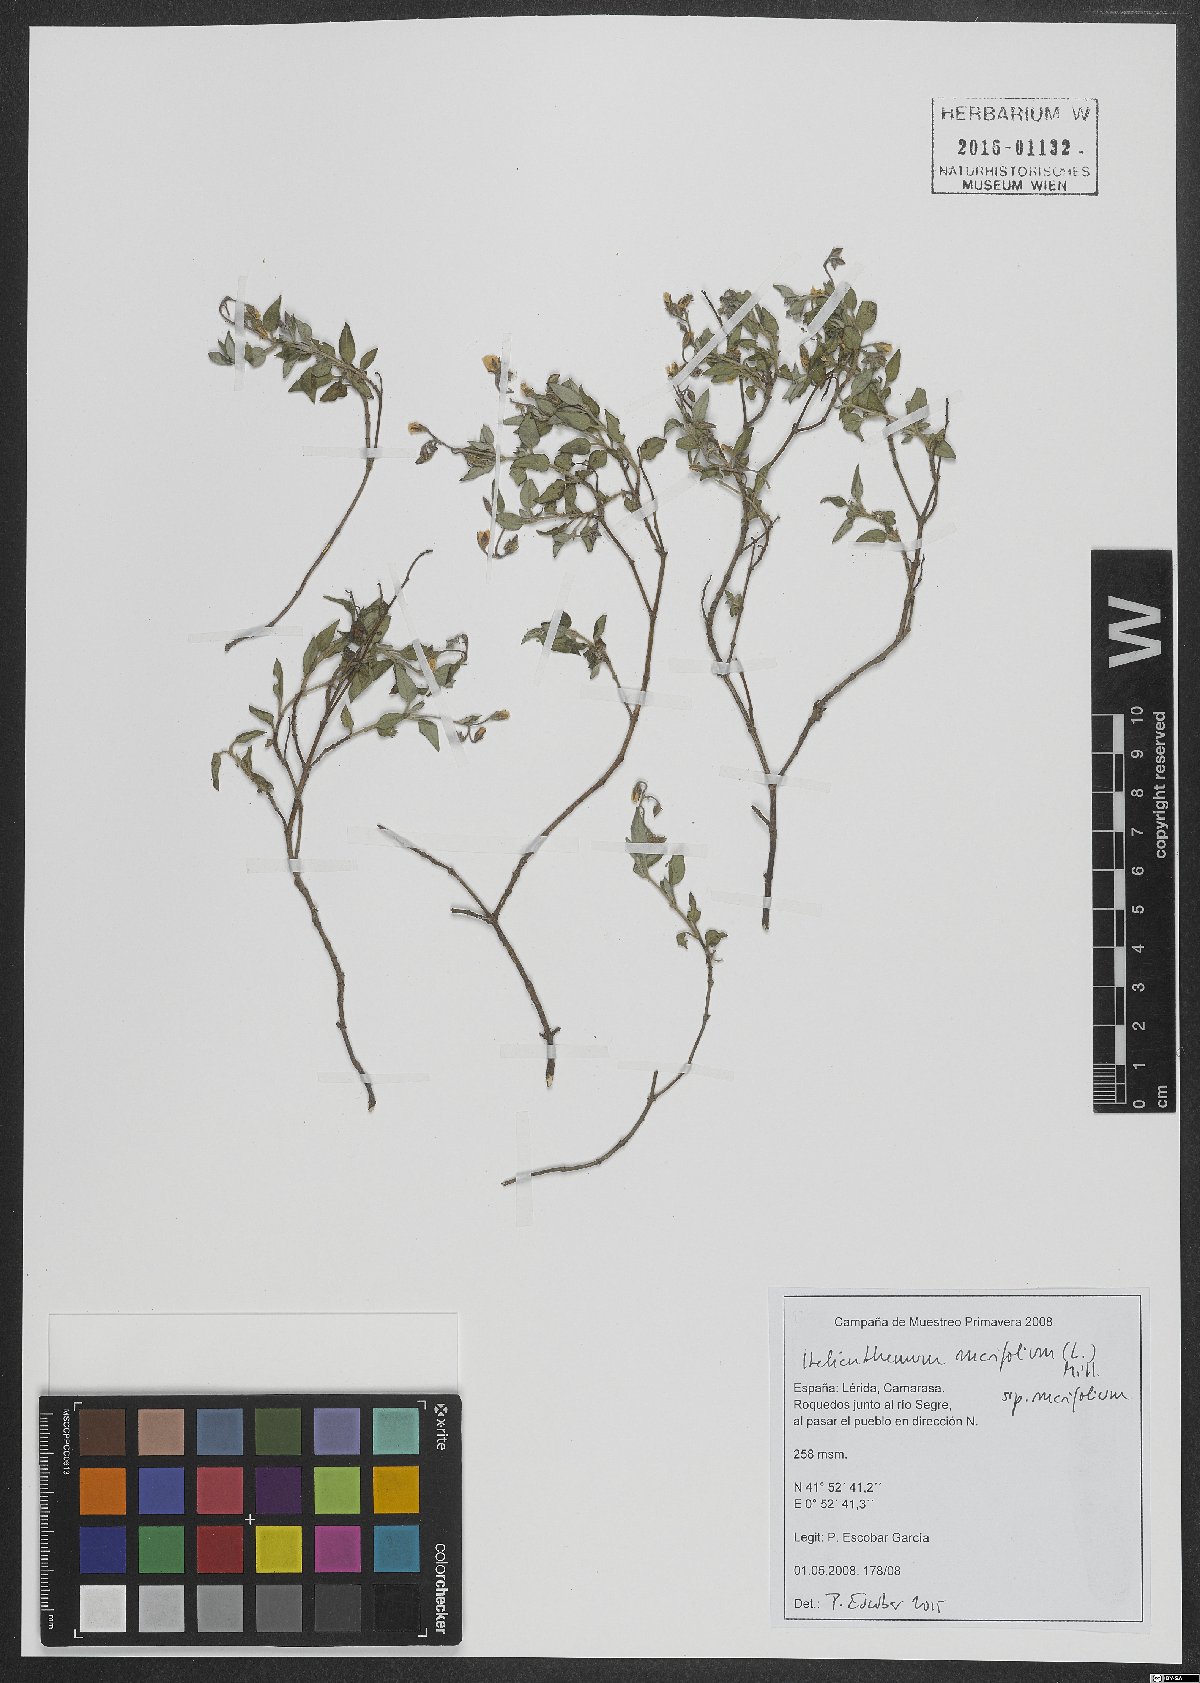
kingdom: Plantae
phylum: Tracheophyta
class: Magnoliopsida
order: Malvales
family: Cistaceae
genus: Helianthemum
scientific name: Helianthemum marifolium
